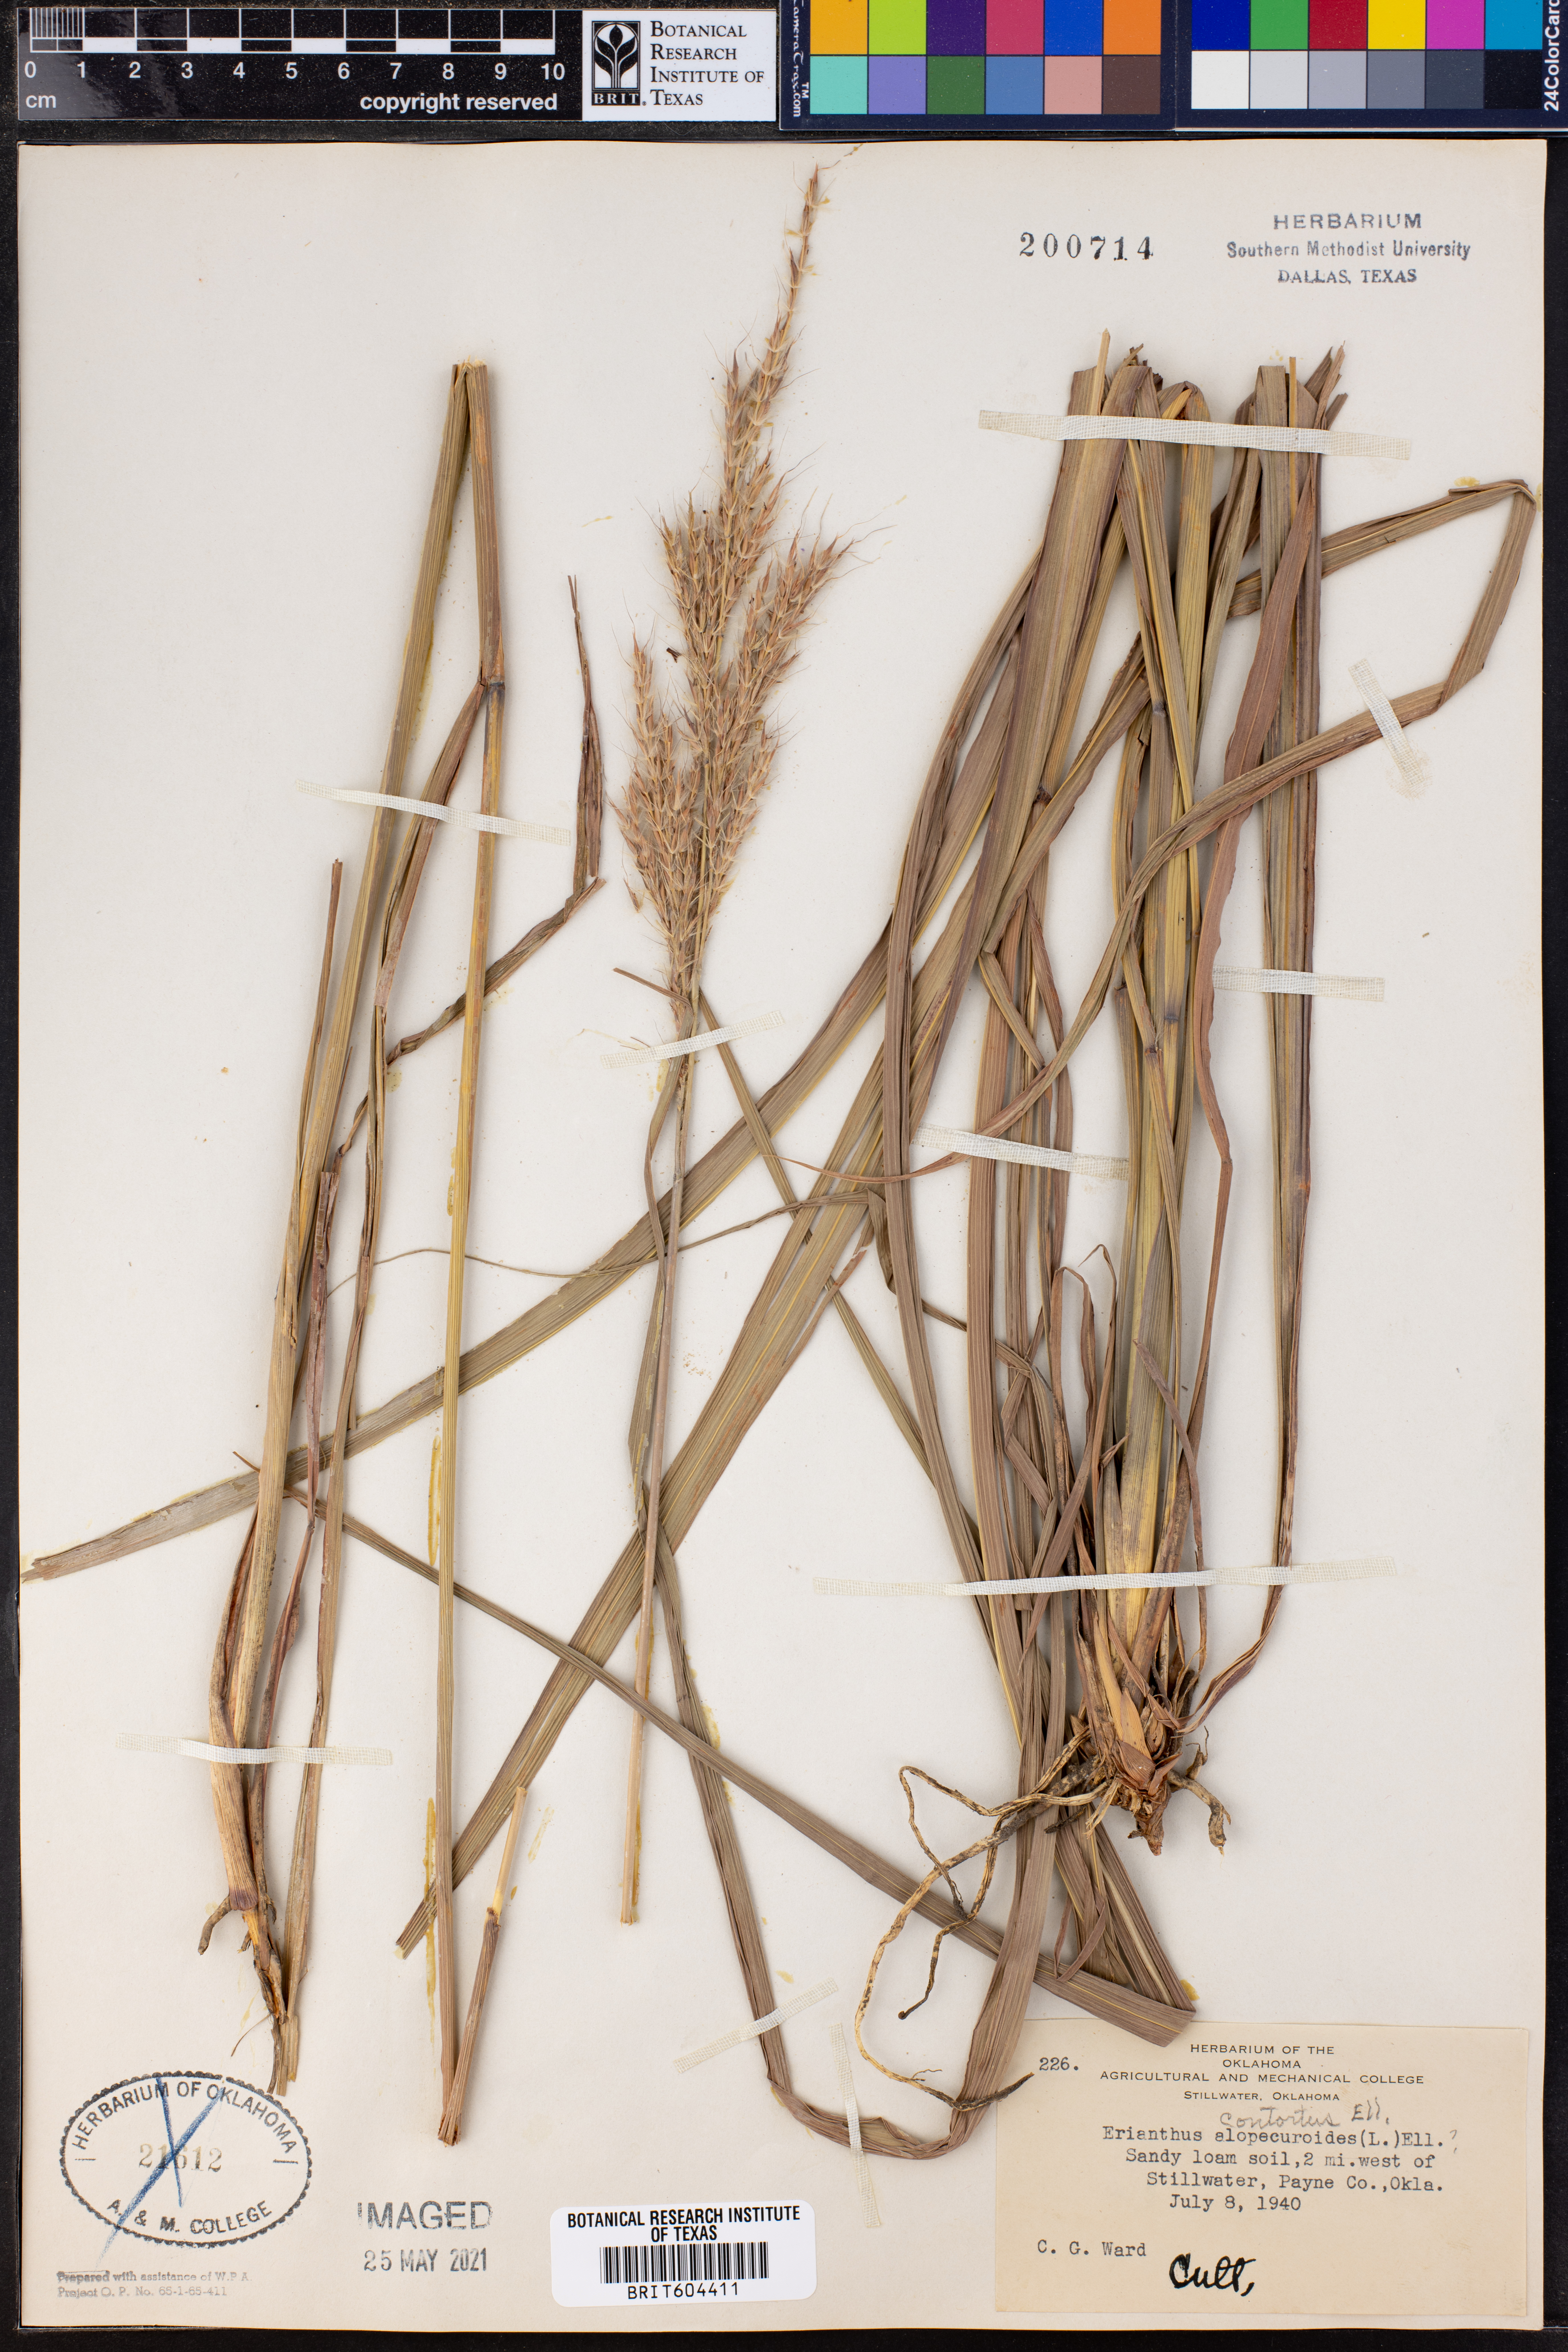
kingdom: Plantae
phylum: Tracheophyta
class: Liliopsida
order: Poales
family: Poaceae
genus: Erianthus
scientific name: Erianthus contortus
